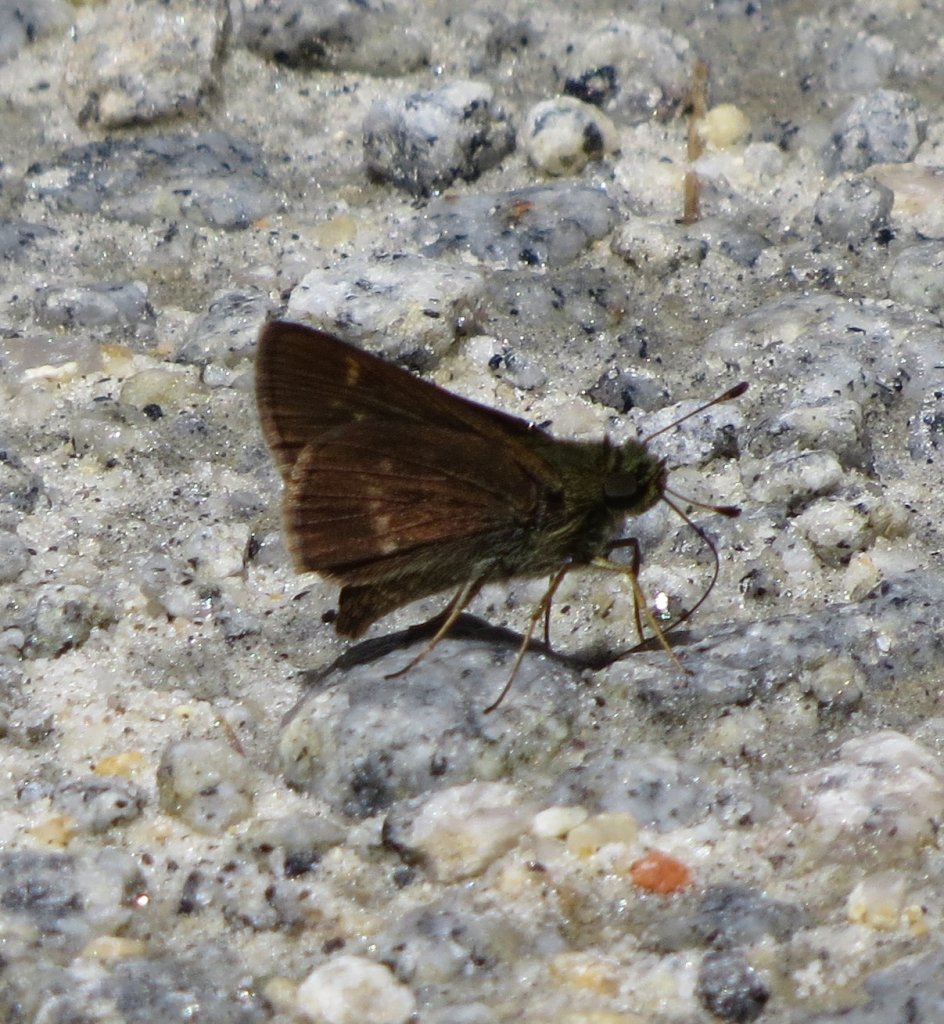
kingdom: Animalia
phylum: Arthropoda
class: Insecta
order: Lepidoptera
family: Hesperiidae
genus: Polites
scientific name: Polites
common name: Crossline Skipper
